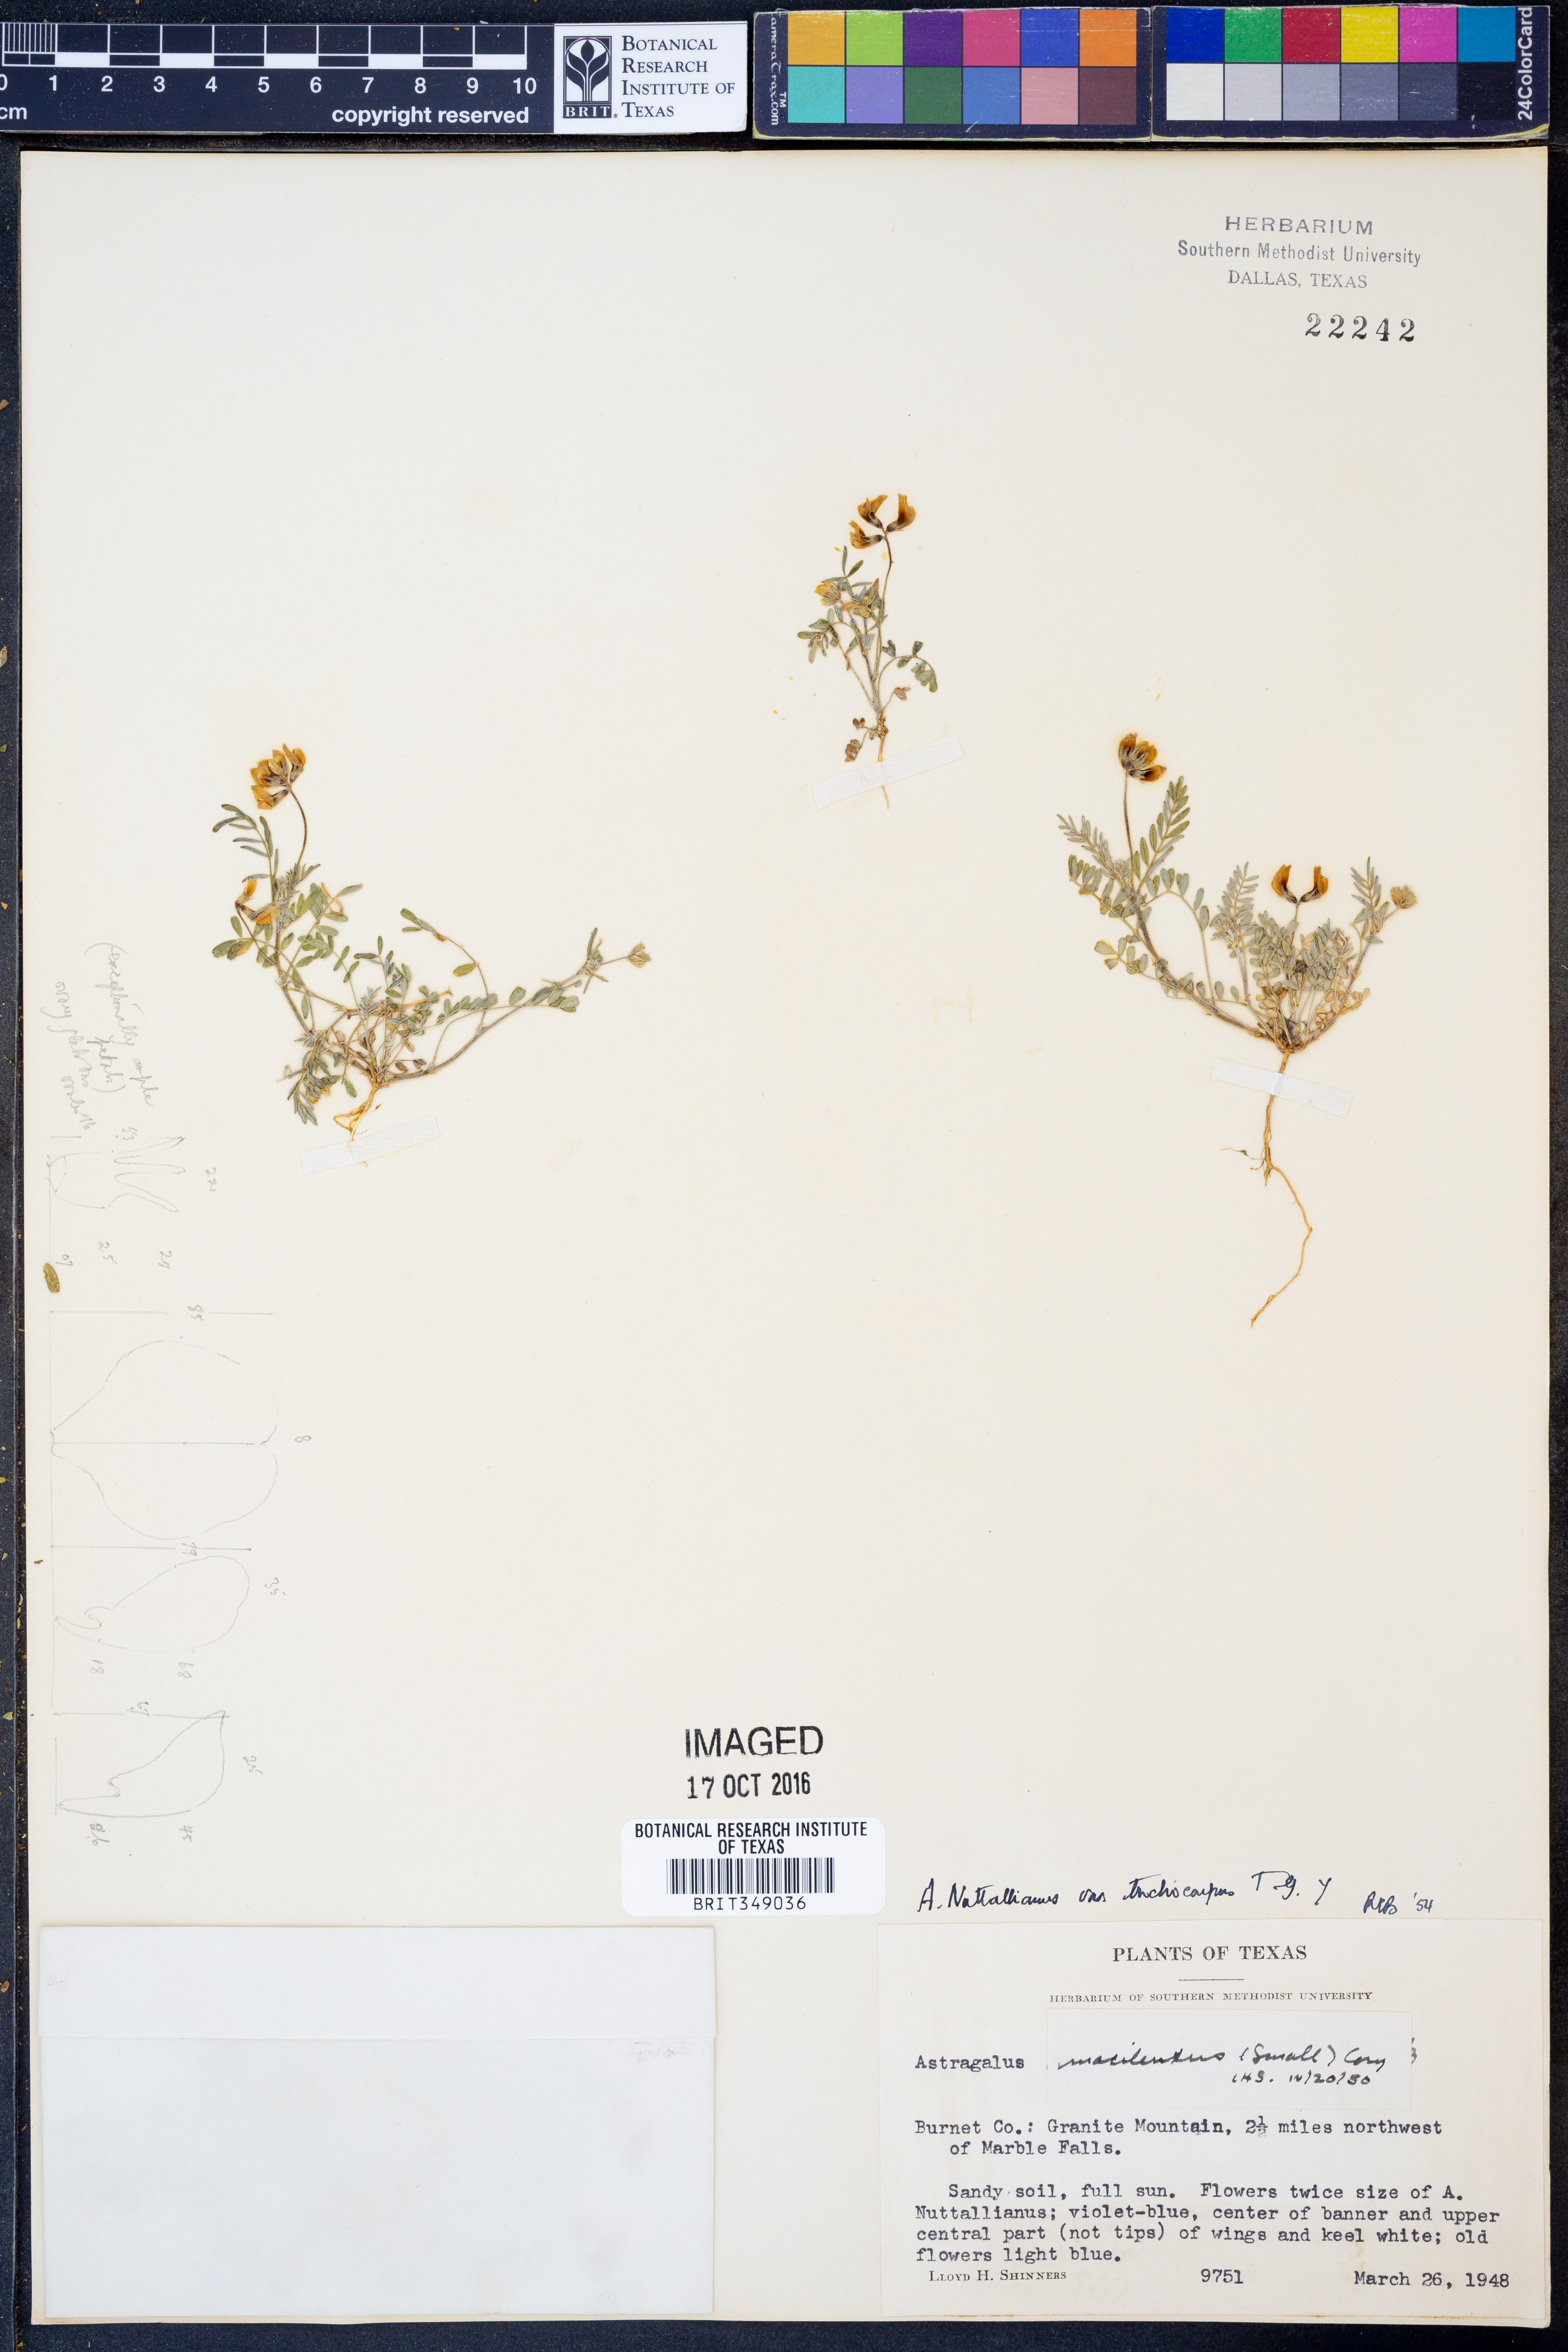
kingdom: Plantae
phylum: Tracheophyta
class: Magnoliopsida
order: Fabales
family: Fabaceae
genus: Astragalus
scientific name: Astragalus nuttallianus
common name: Smallflowered milkvetch
